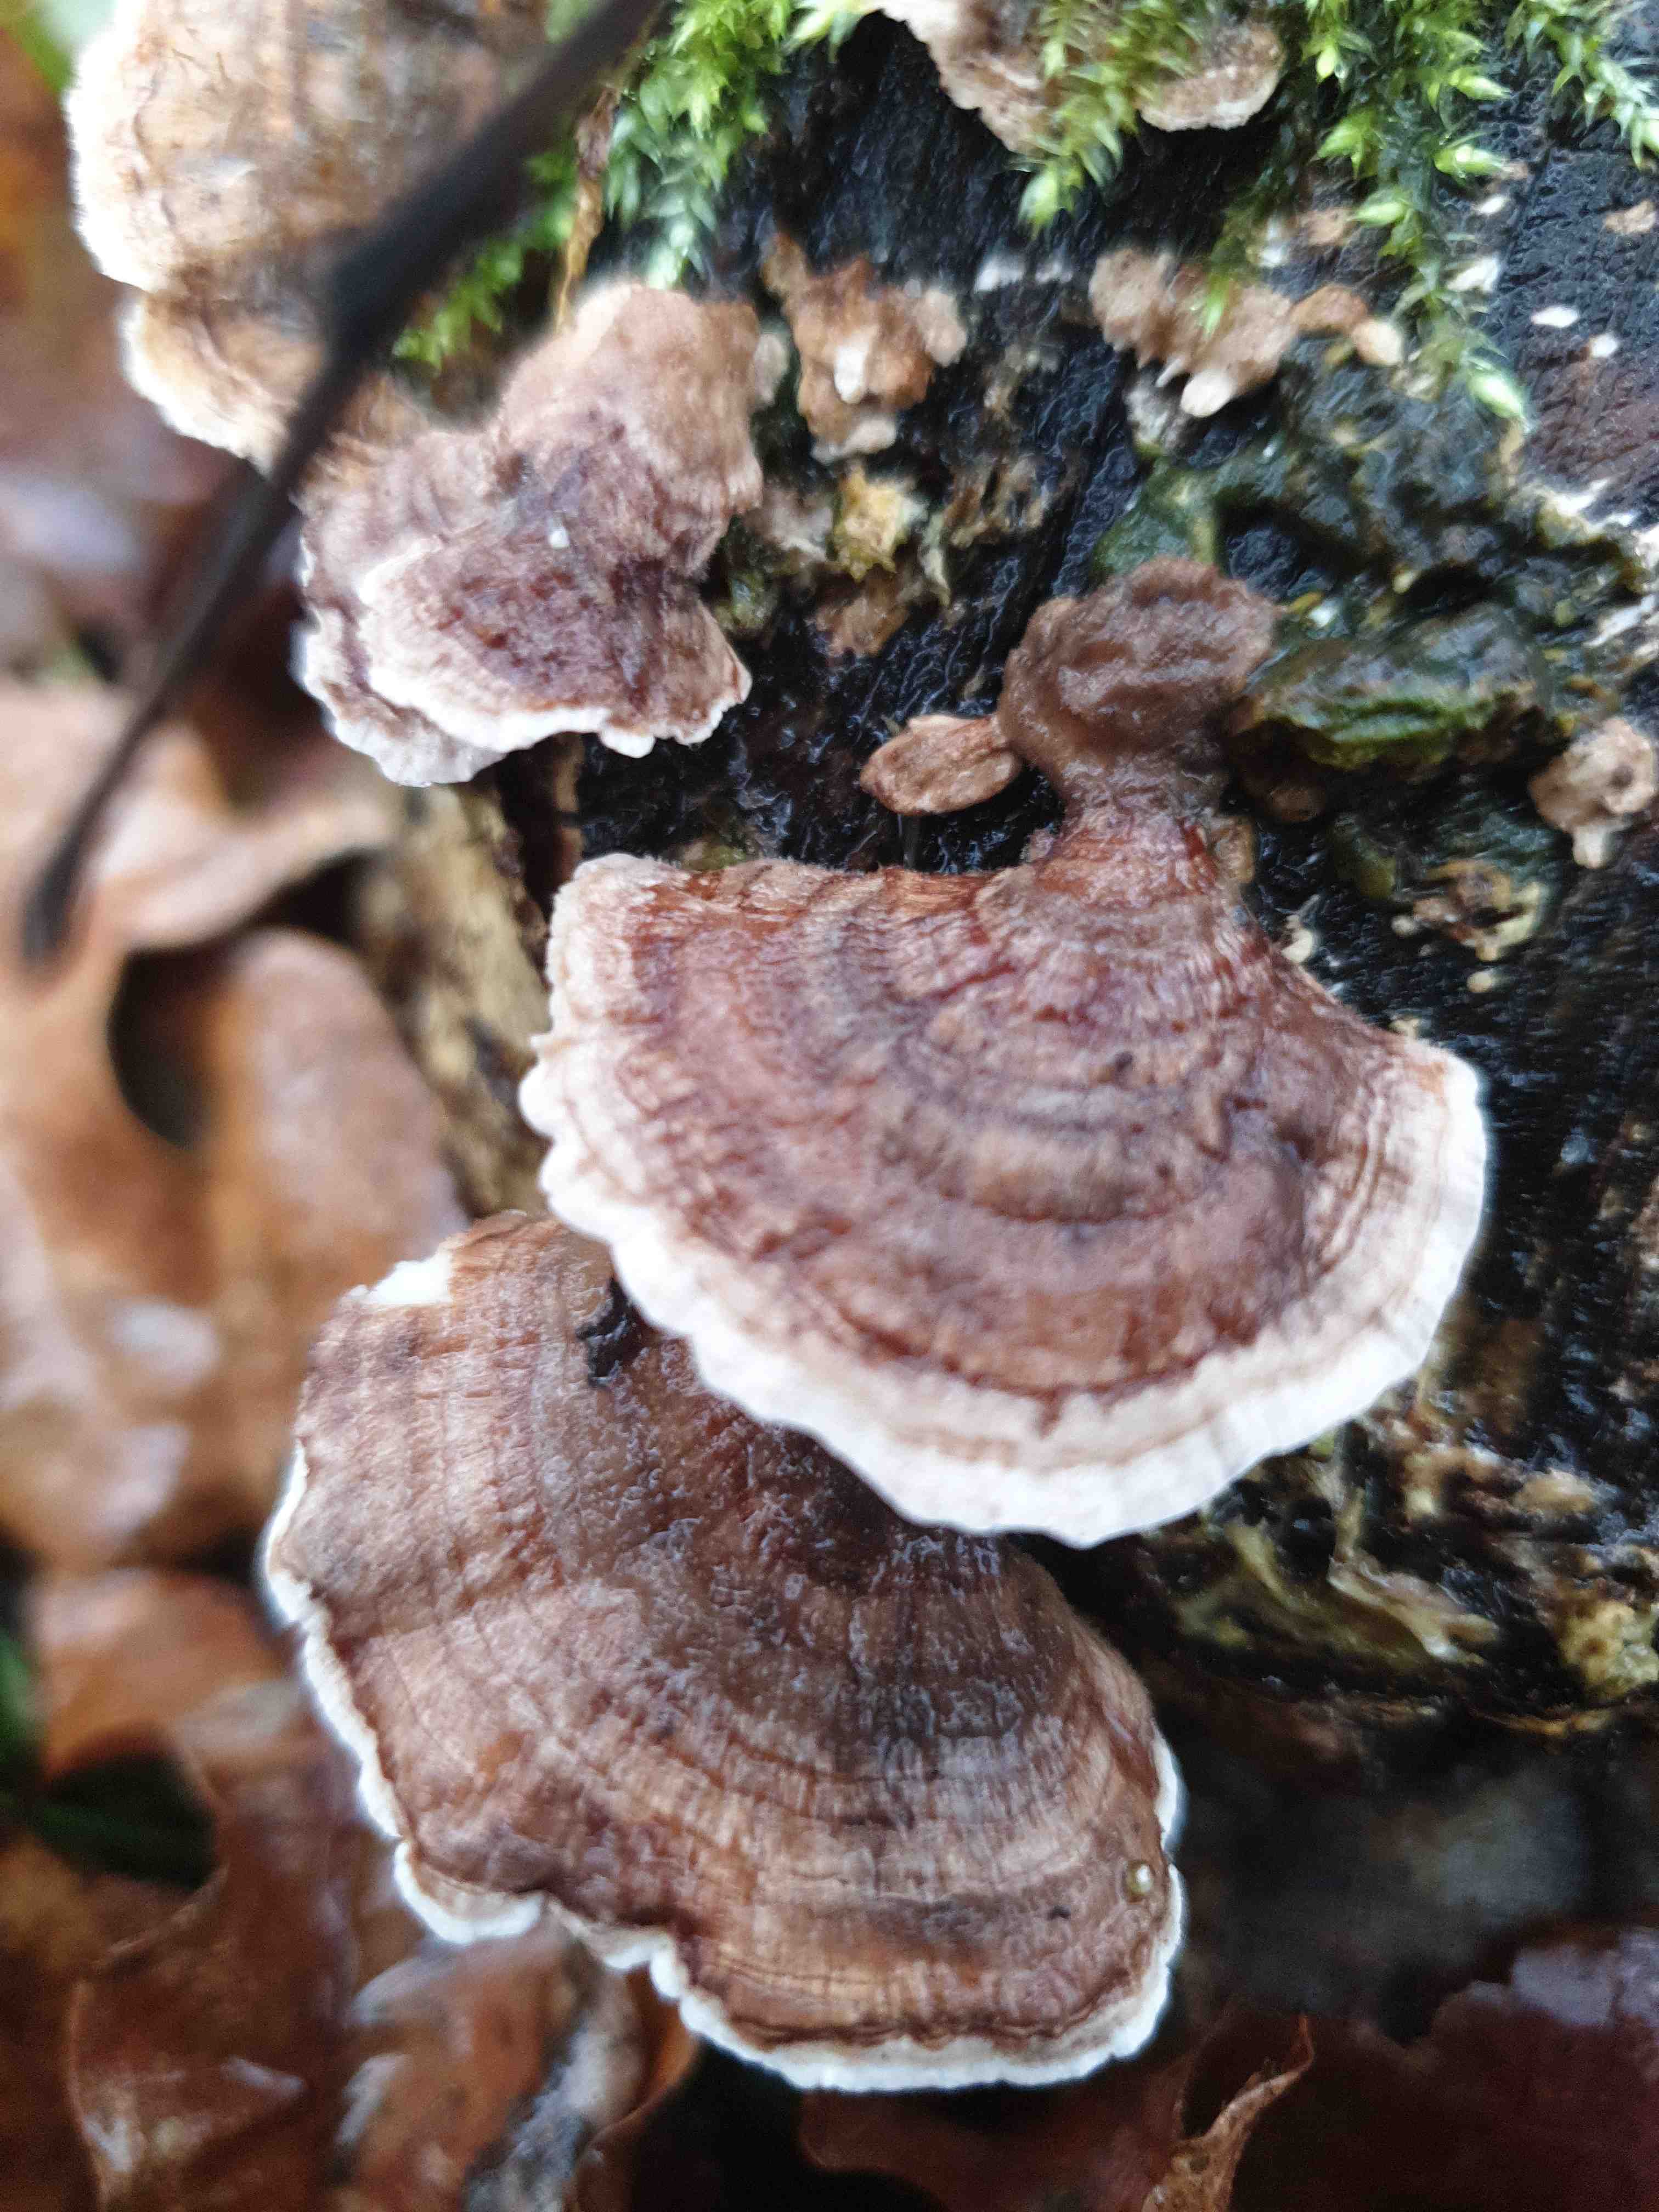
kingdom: Fungi
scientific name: Fungi
